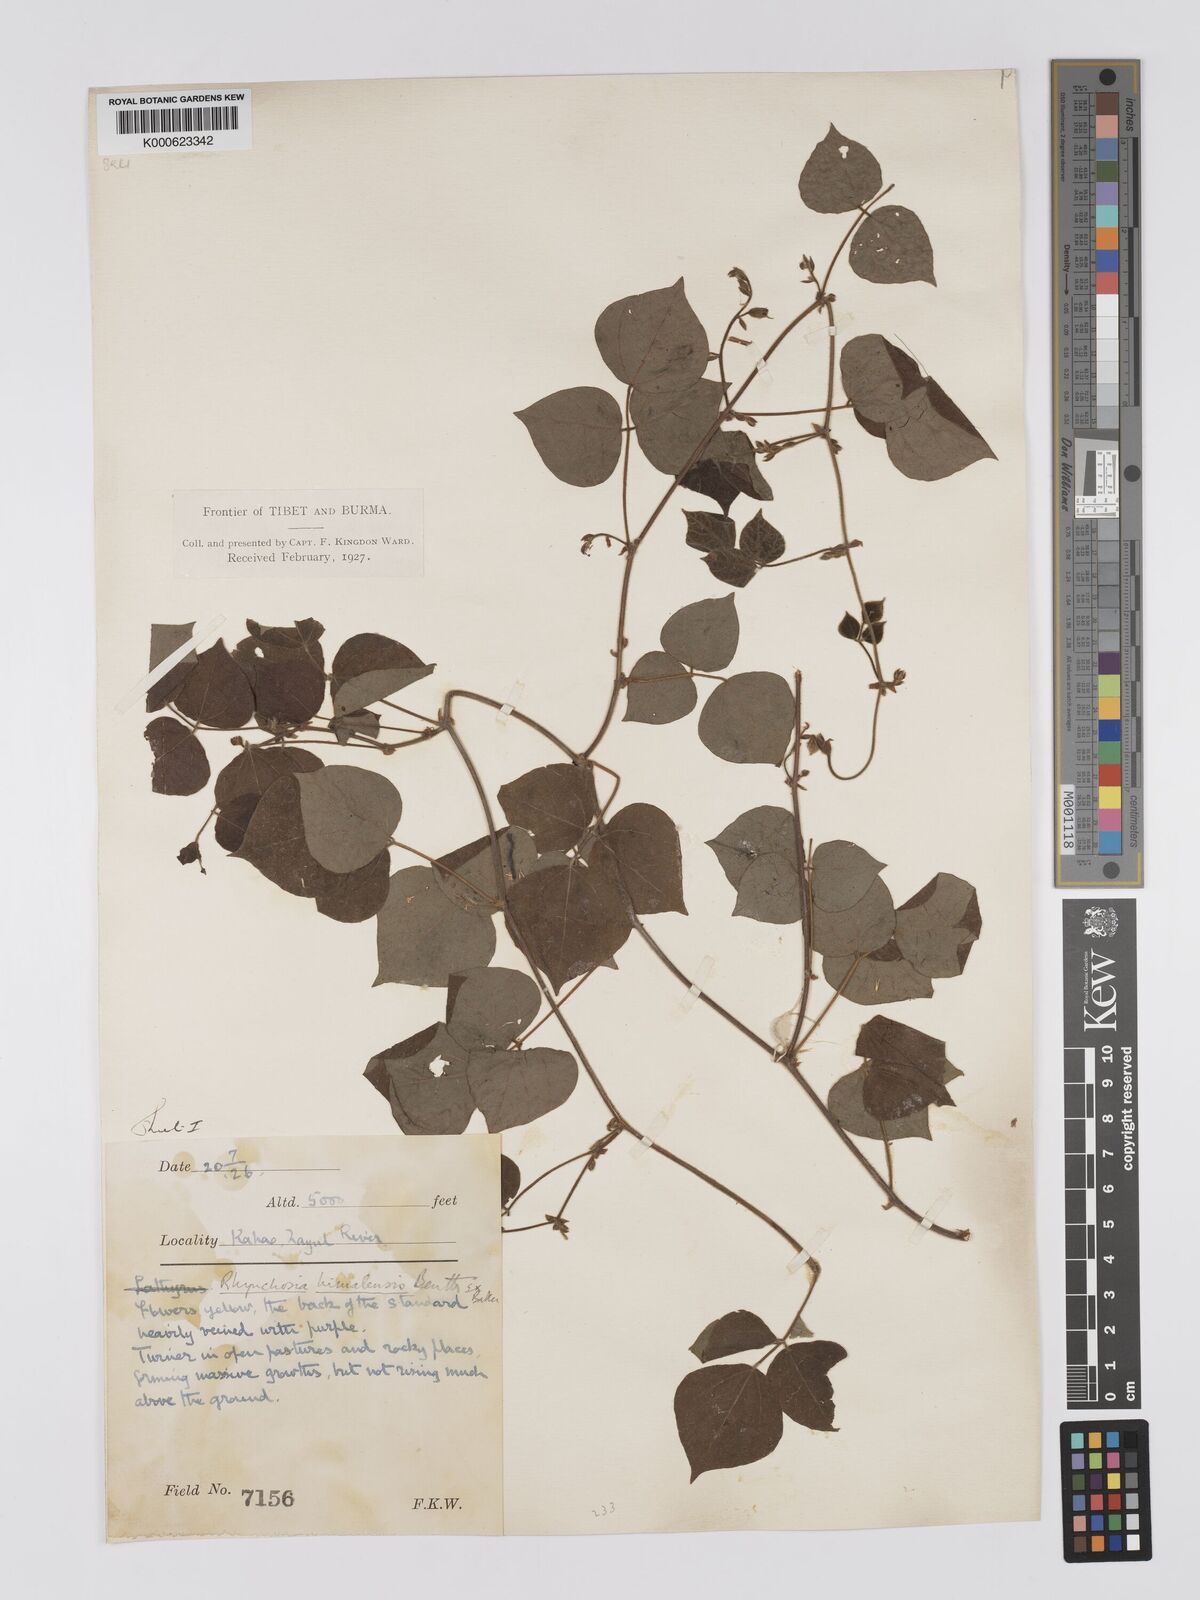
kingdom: Plantae
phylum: Tracheophyta
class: Magnoliopsida
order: Fabales
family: Fabaceae
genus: Rhynchosia
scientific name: Rhynchosia himalensis
